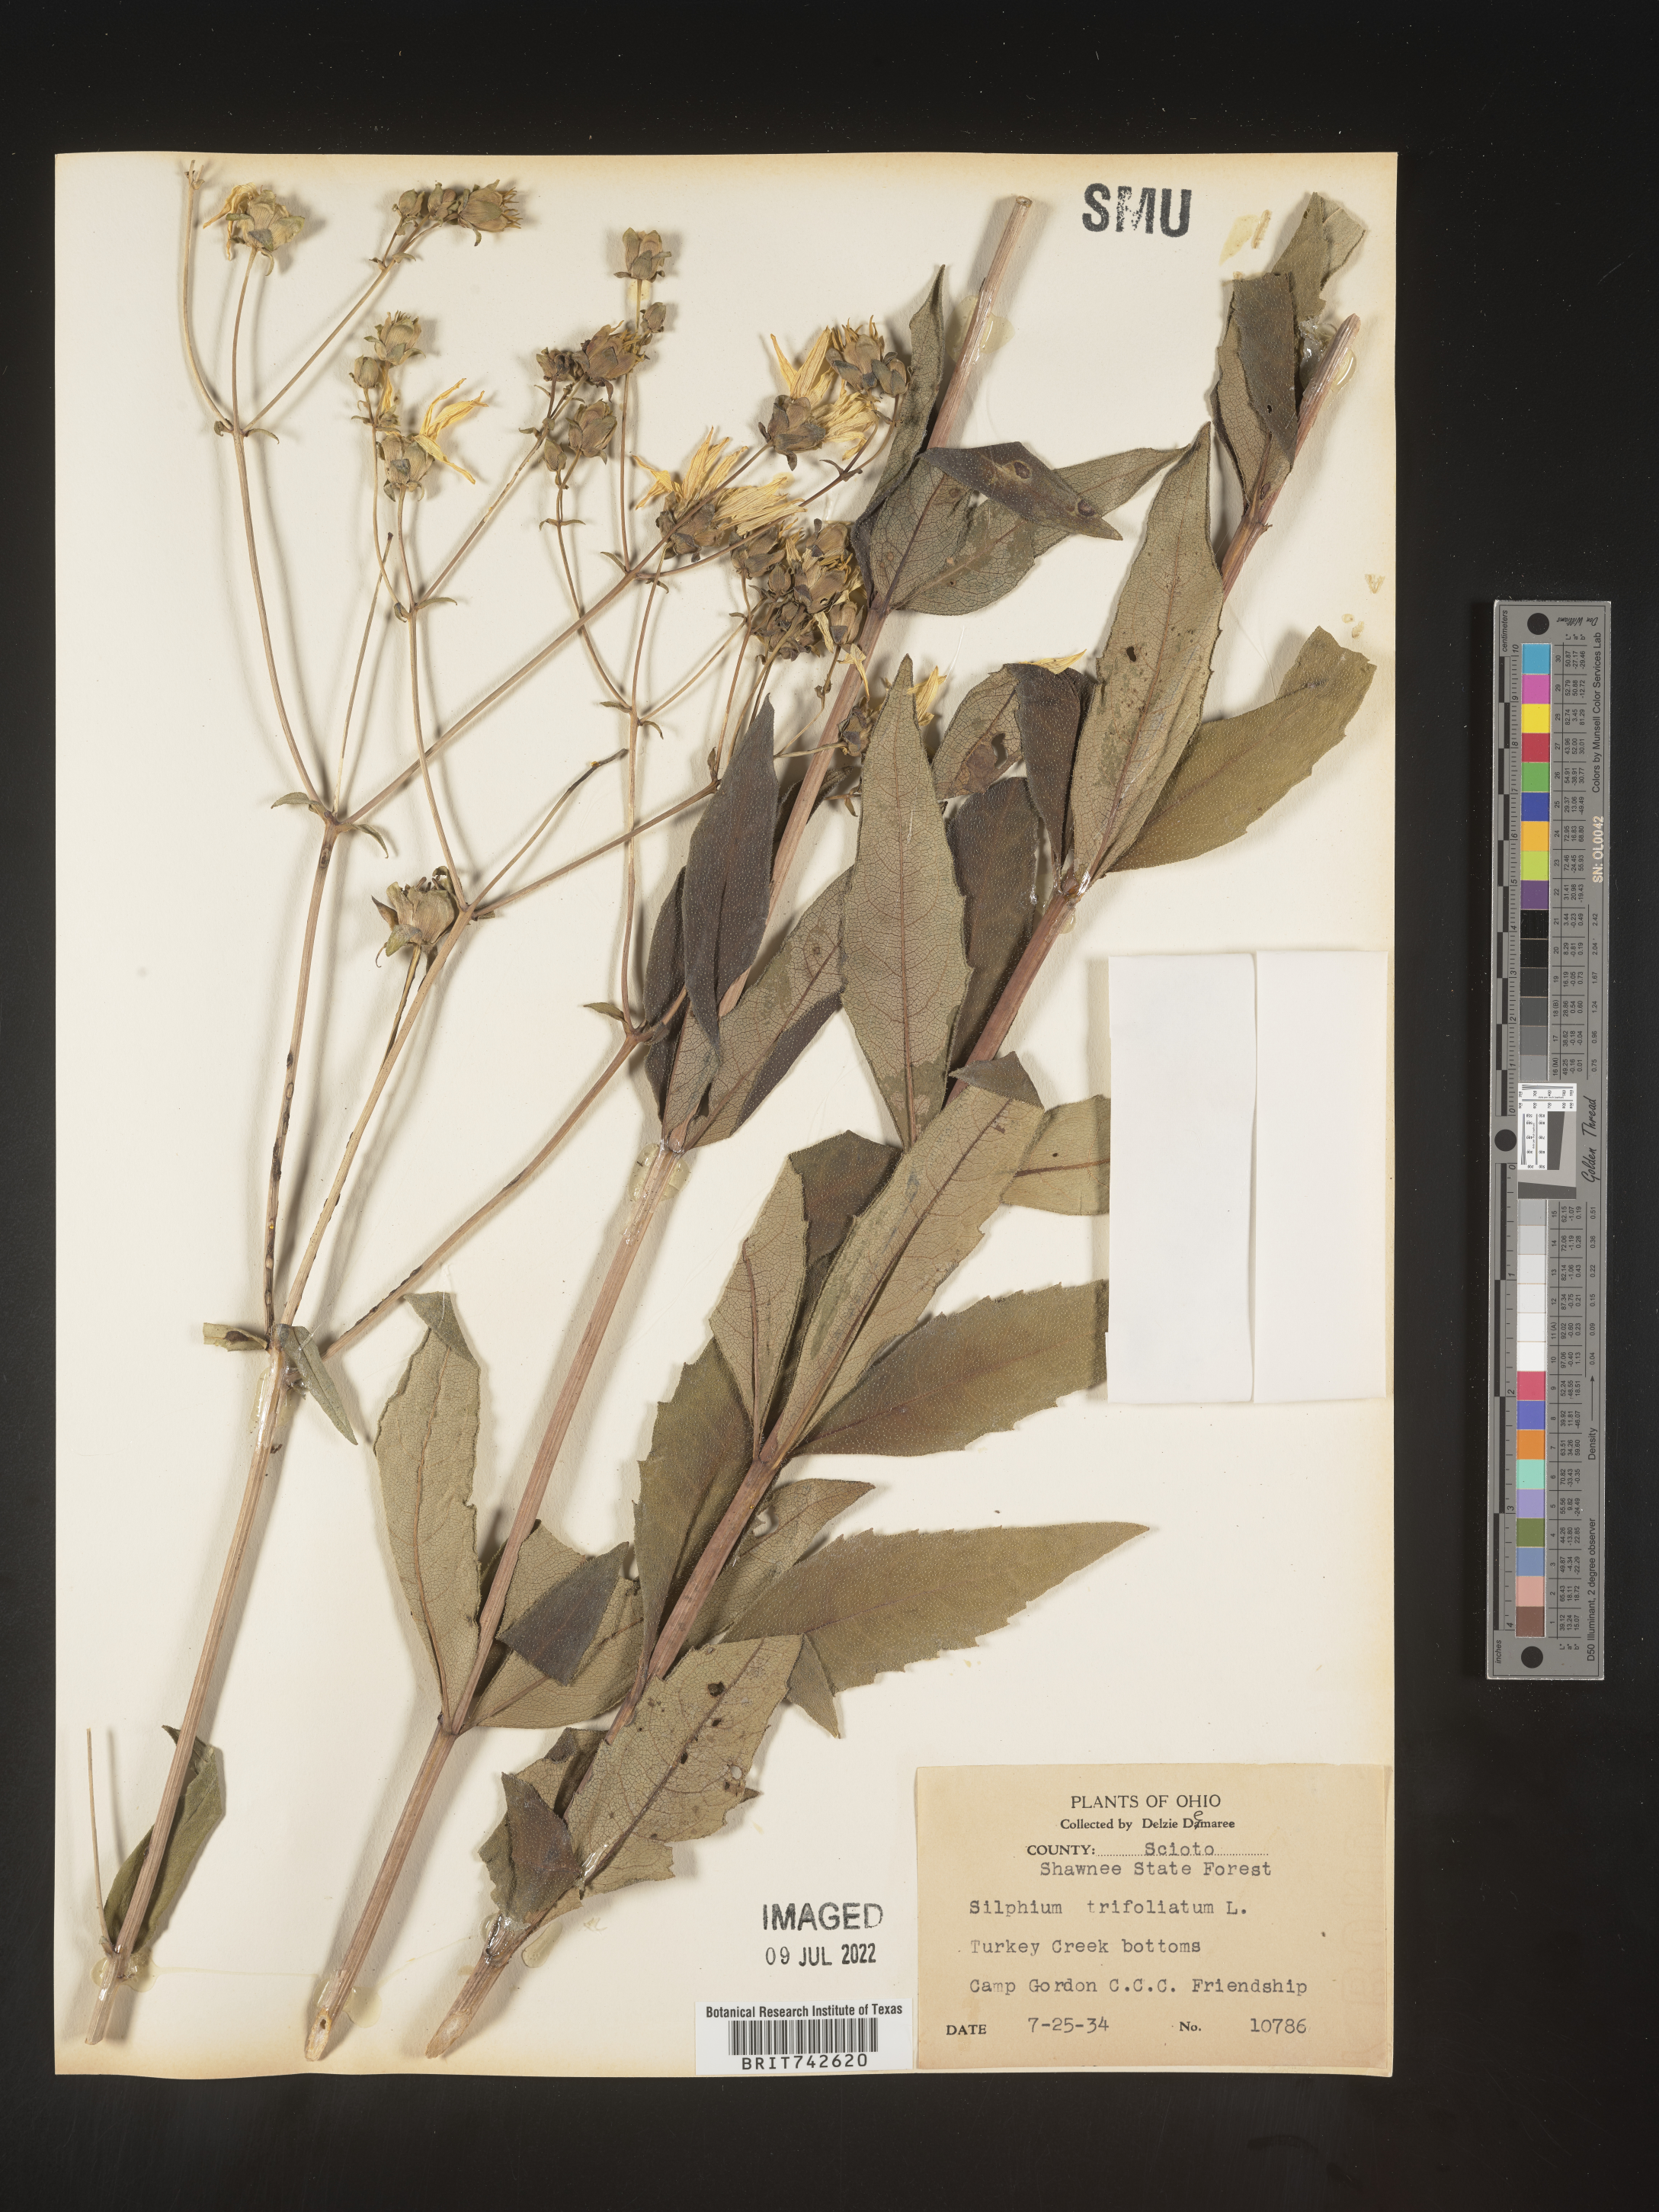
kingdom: Plantae
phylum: Tracheophyta
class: Magnoliopsida
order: Asterales
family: Asteraceae
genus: Silphium
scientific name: Silphium asteriscus
